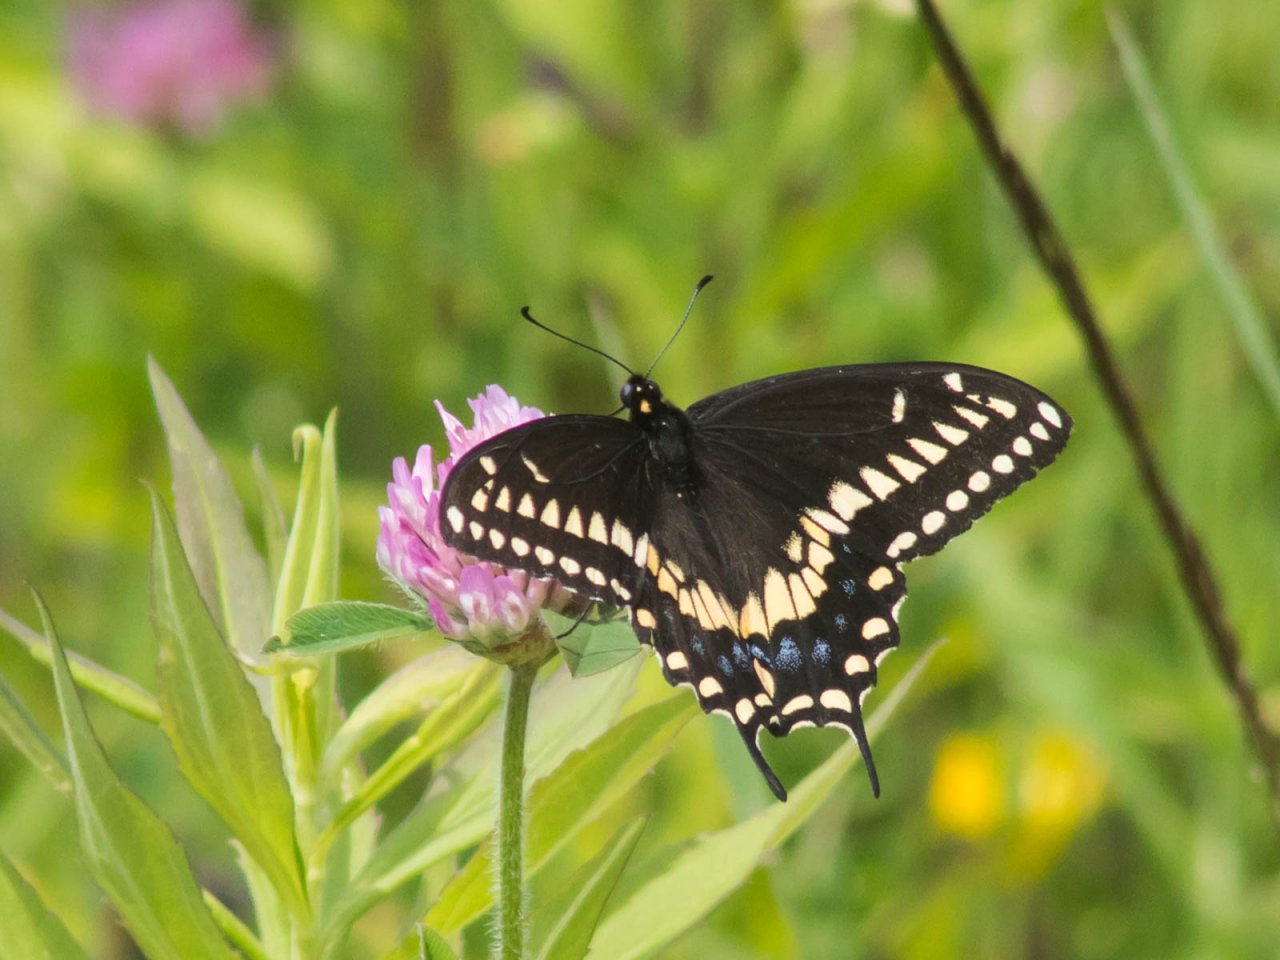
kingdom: Animalia
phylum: Arthropoda
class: Insecta
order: Lepidoptera
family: Papilionidae
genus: Papilio
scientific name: Papilio polyxenes
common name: Black Swallowtail
